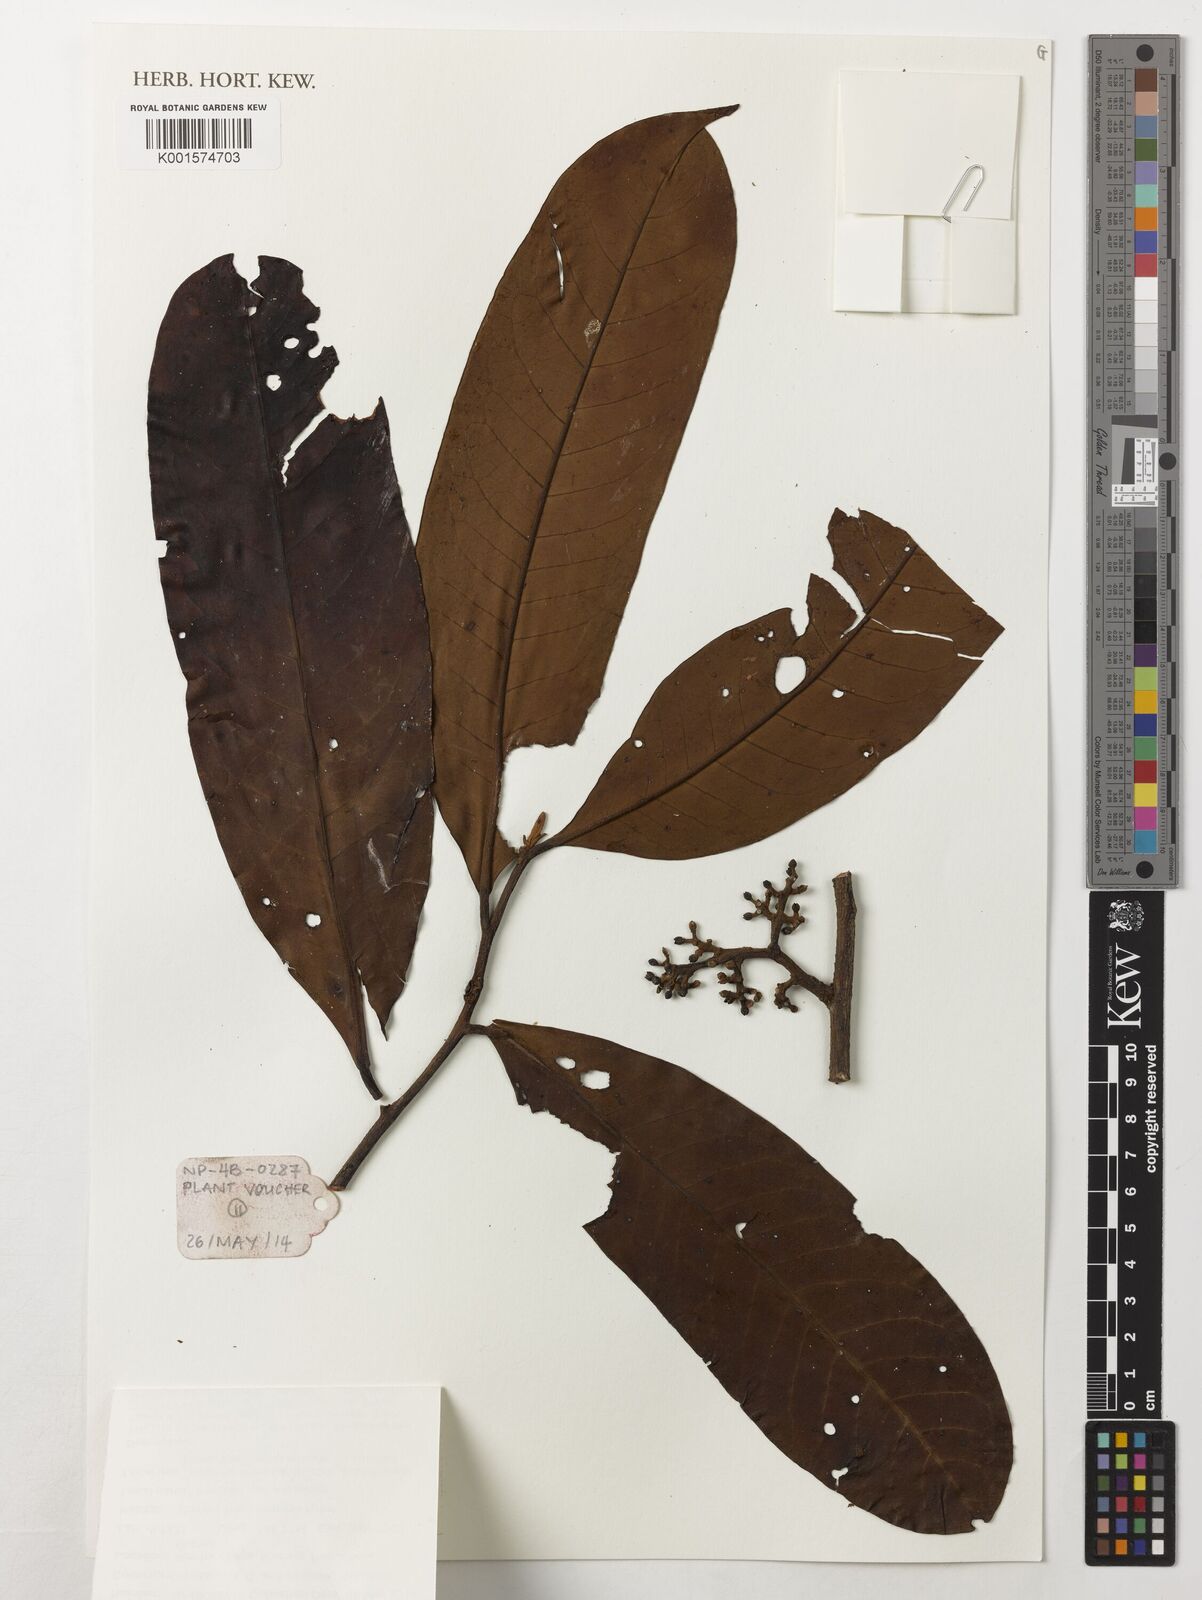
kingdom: Plantae
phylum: Tracheophyta
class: Magnoliopsida
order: Magnoliales
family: Myristicaceae
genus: Horsfieldia
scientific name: Horsfieldia spicata
